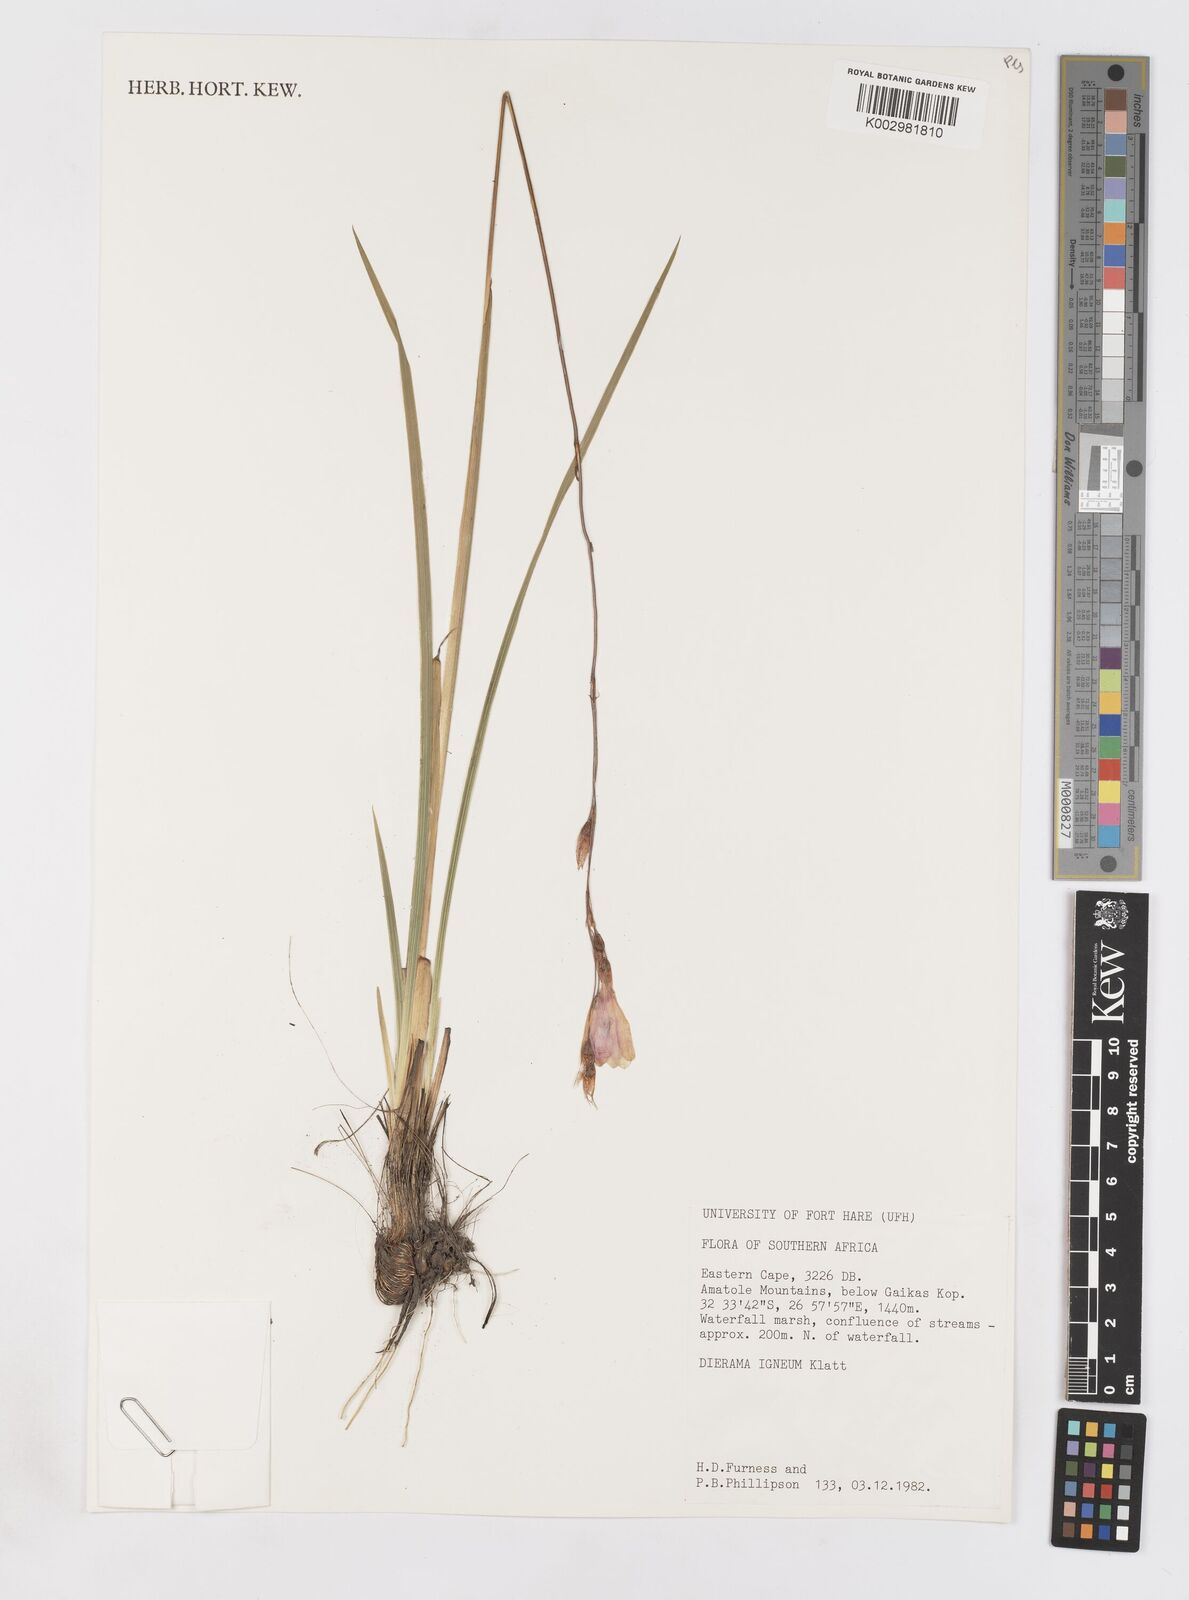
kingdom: Plantae
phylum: Tracheophyta
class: Liliopsida
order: Asparagales
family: Iridaceae
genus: Dierama
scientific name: Dierama igneum
